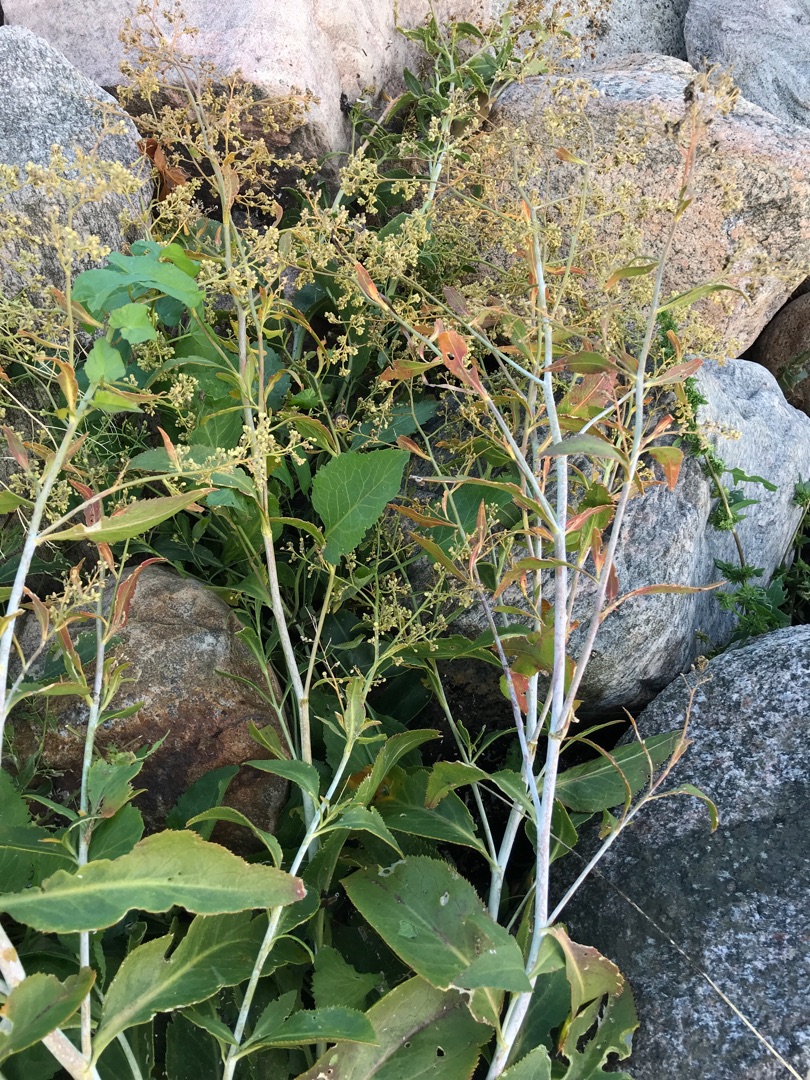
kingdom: Plantae
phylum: Tracheophyta
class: Magnoliopsida
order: Brassicales
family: Brassicaceae
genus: Lepidium
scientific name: Lepidium latifolium
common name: Strand-karse
